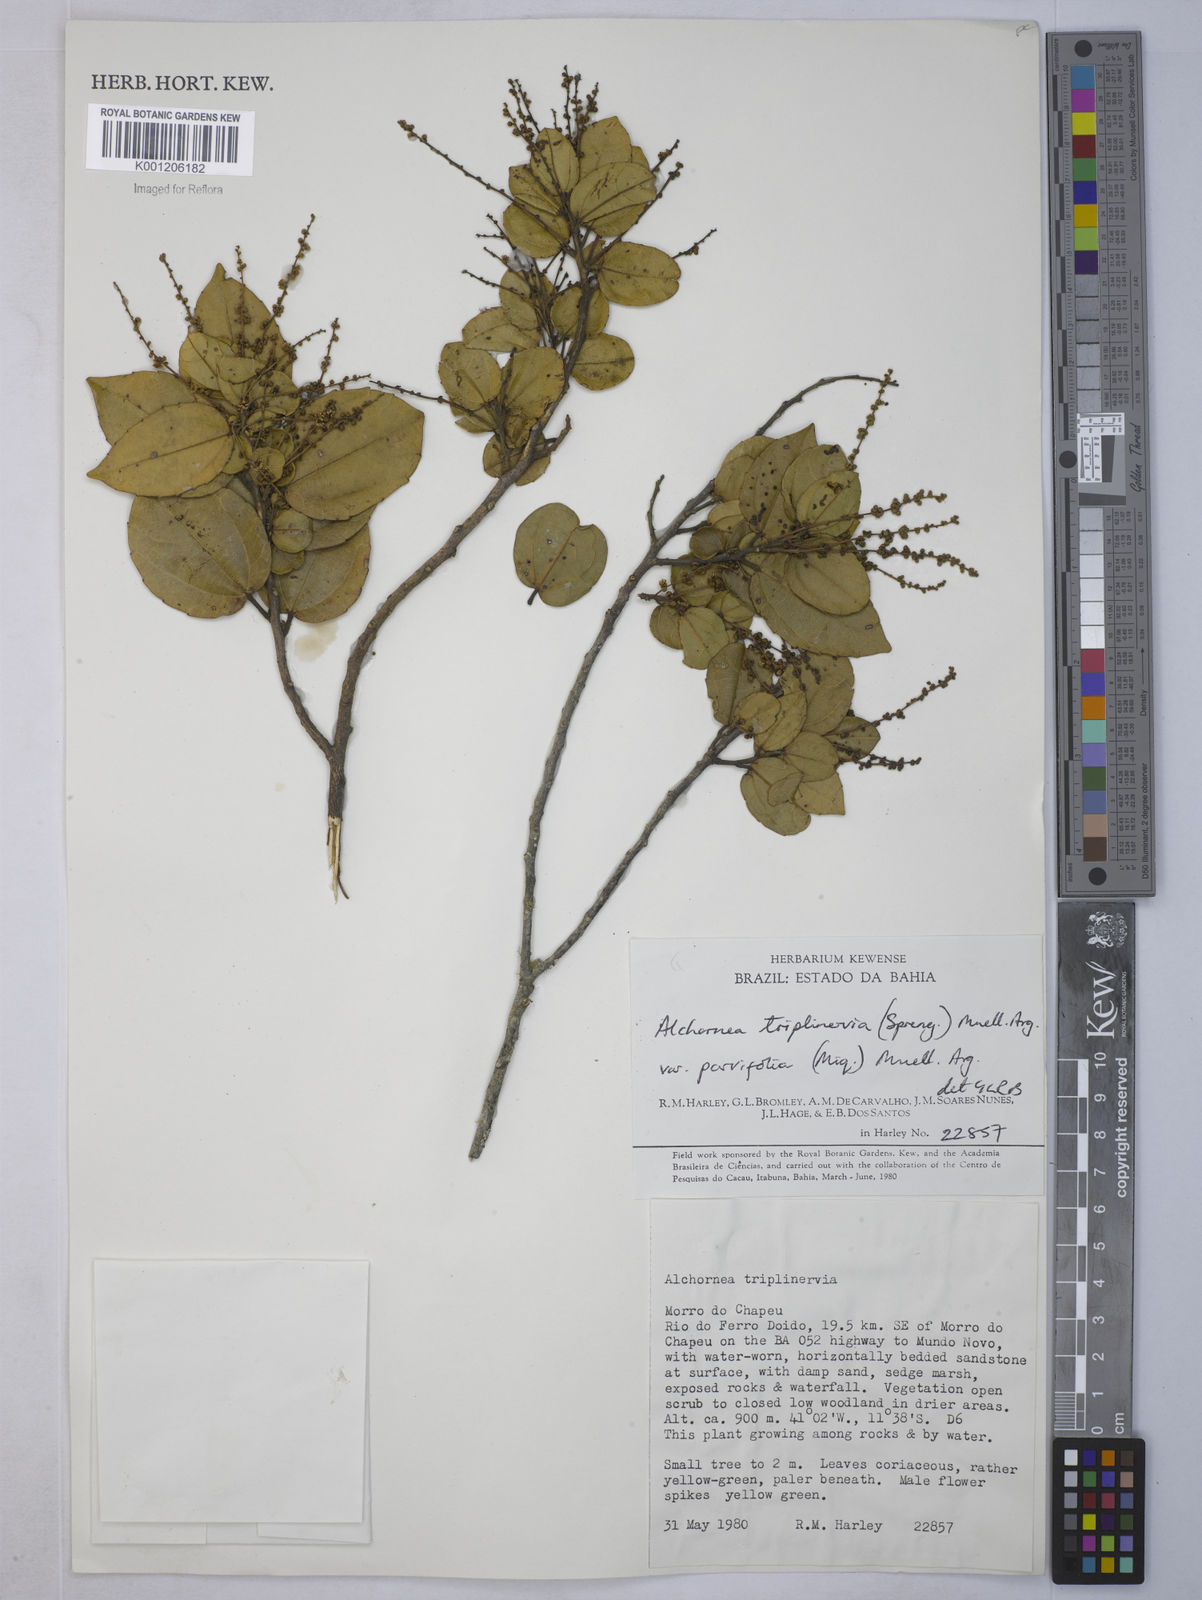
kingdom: Plantae
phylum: Tracheophyta
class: Magnoliopsida
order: Malpighiales
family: Euphorbiaceae
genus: Alchornea
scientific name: Alchornea
